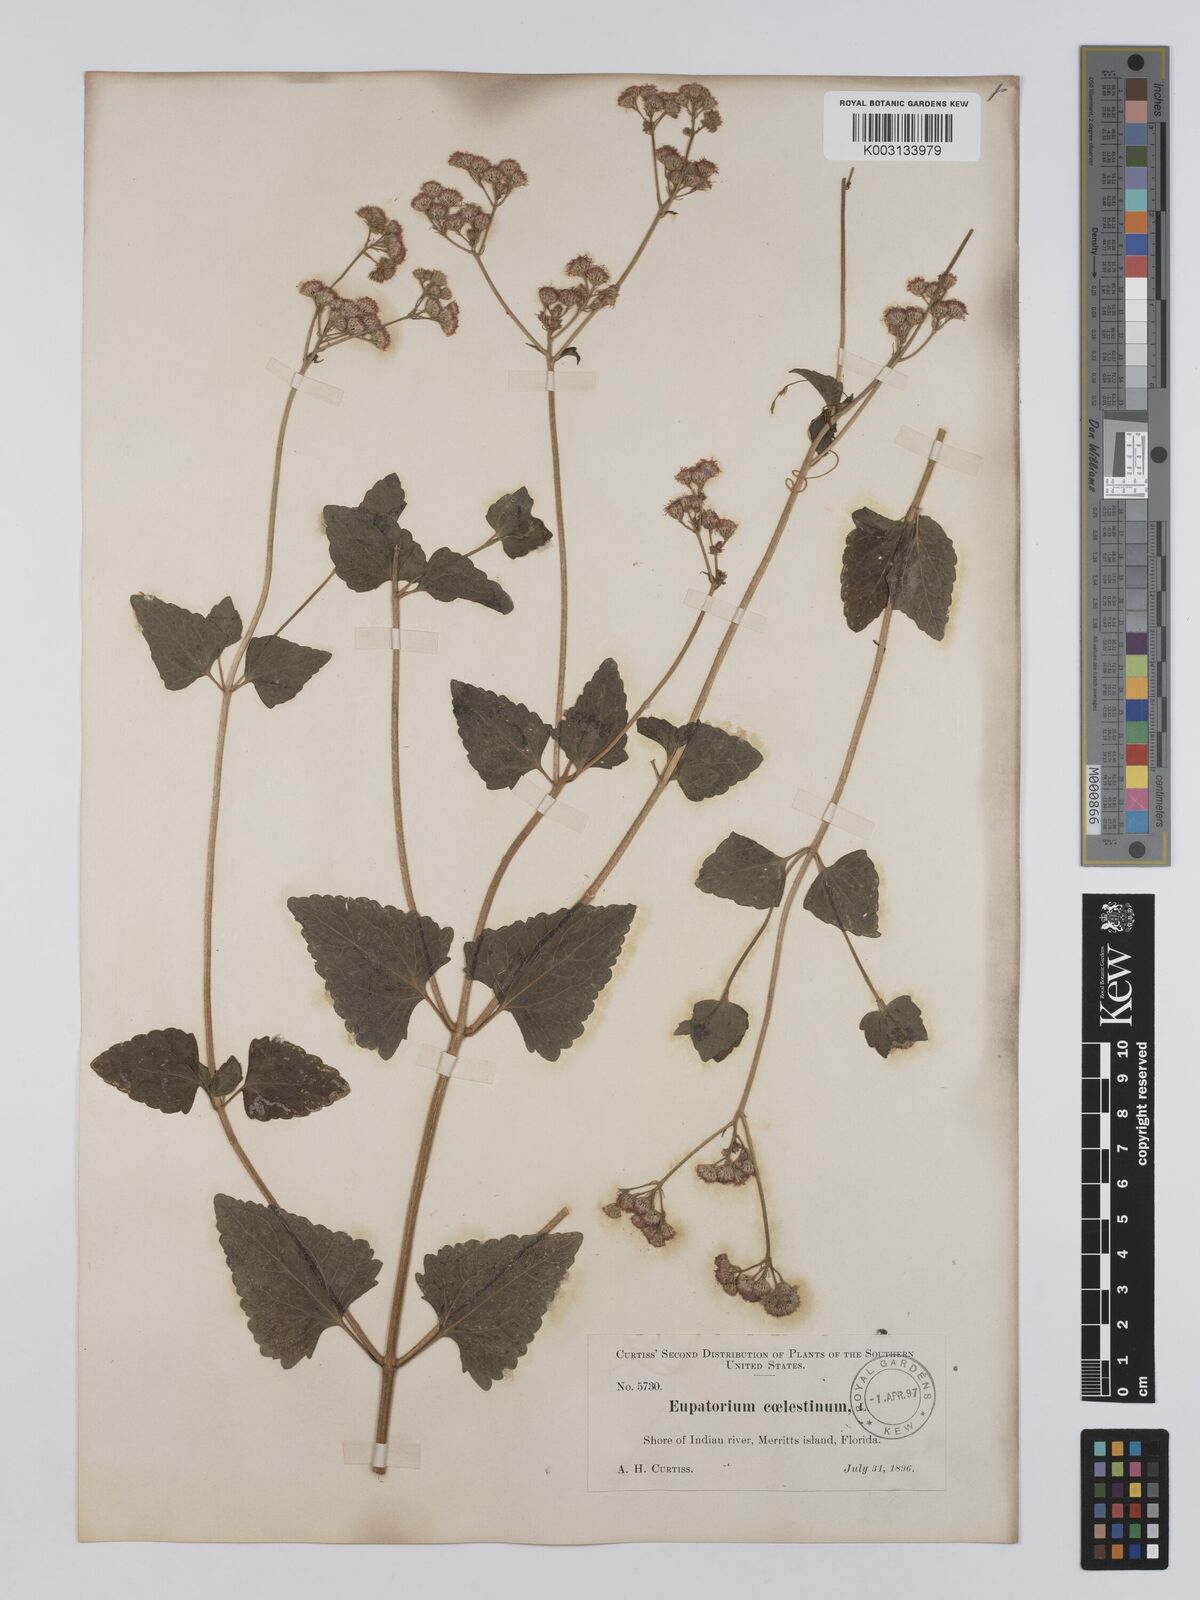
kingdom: Plantae
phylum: Tracheophyta
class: Magnoliopsida
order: Asterales
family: Asteraceae
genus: Conoclinium
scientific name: Conoclinium coelestinum
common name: Blue mistflower
